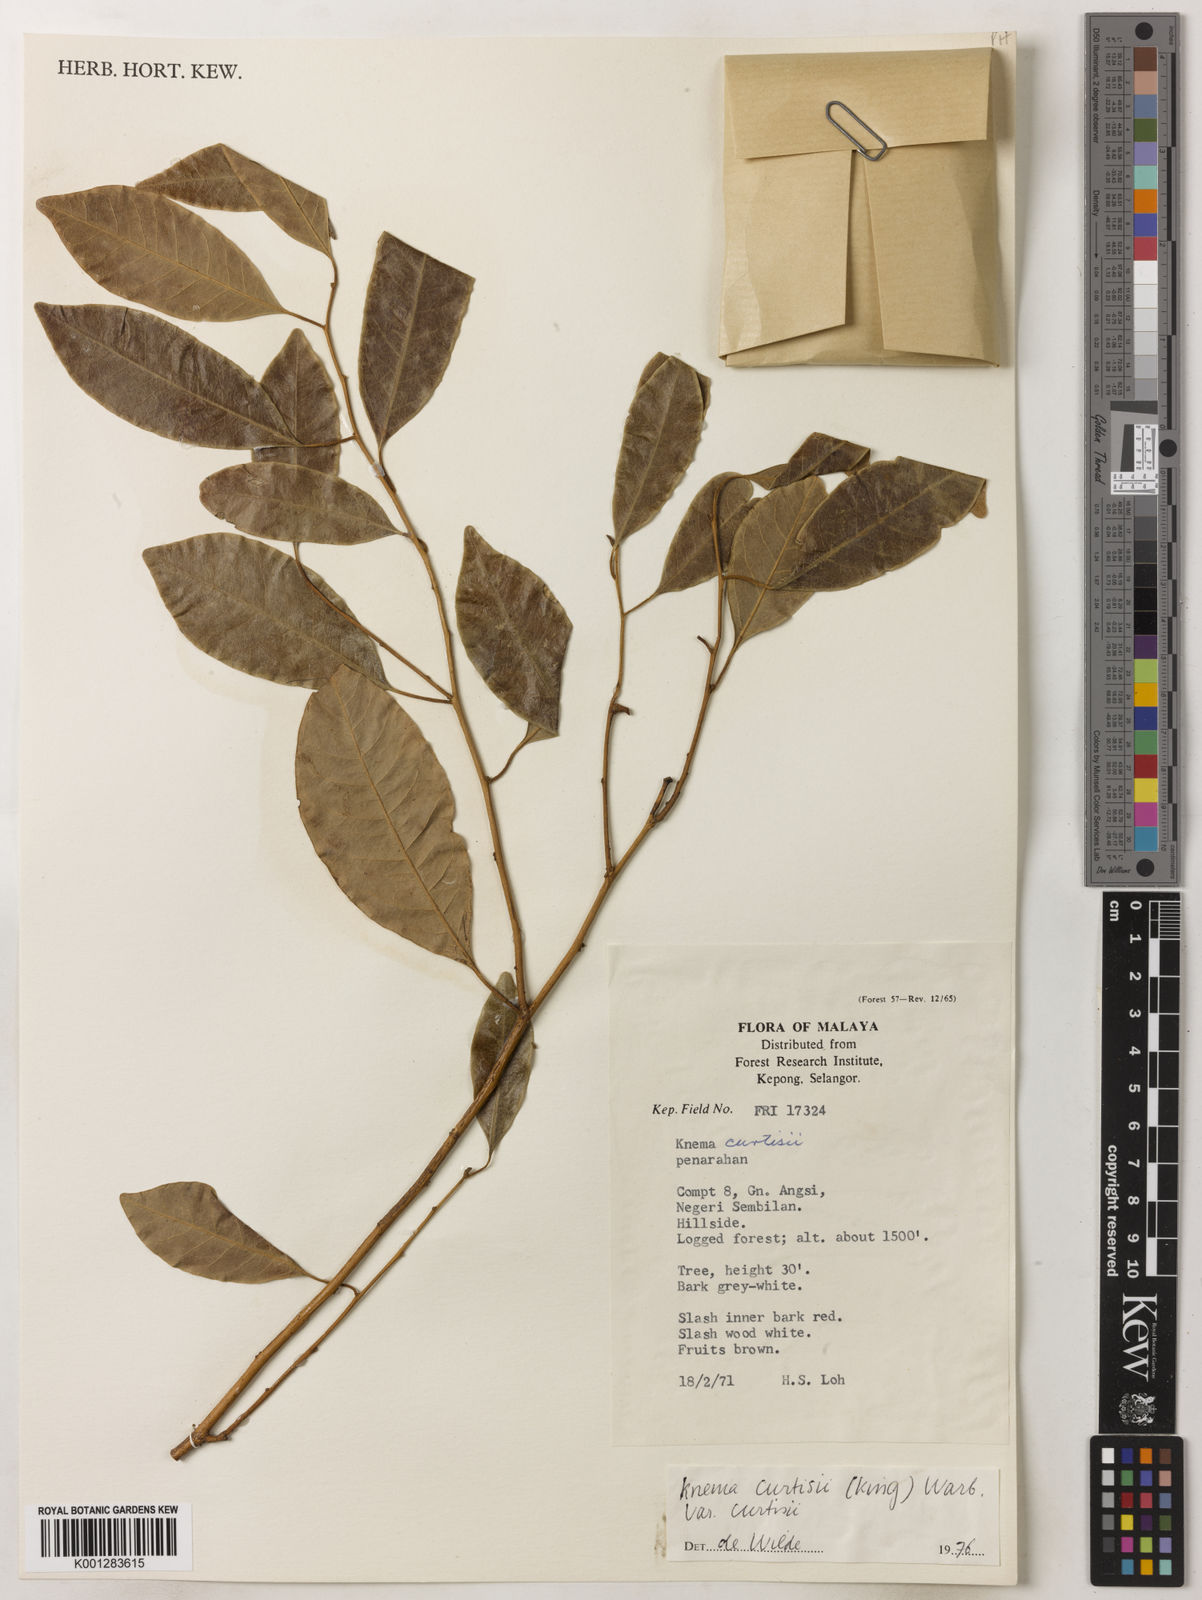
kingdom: Plantae
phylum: Tracheophyta
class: Magnoliopsida
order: Magnoliales
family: Myristicaceae
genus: Knema
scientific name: Knema curtisii
